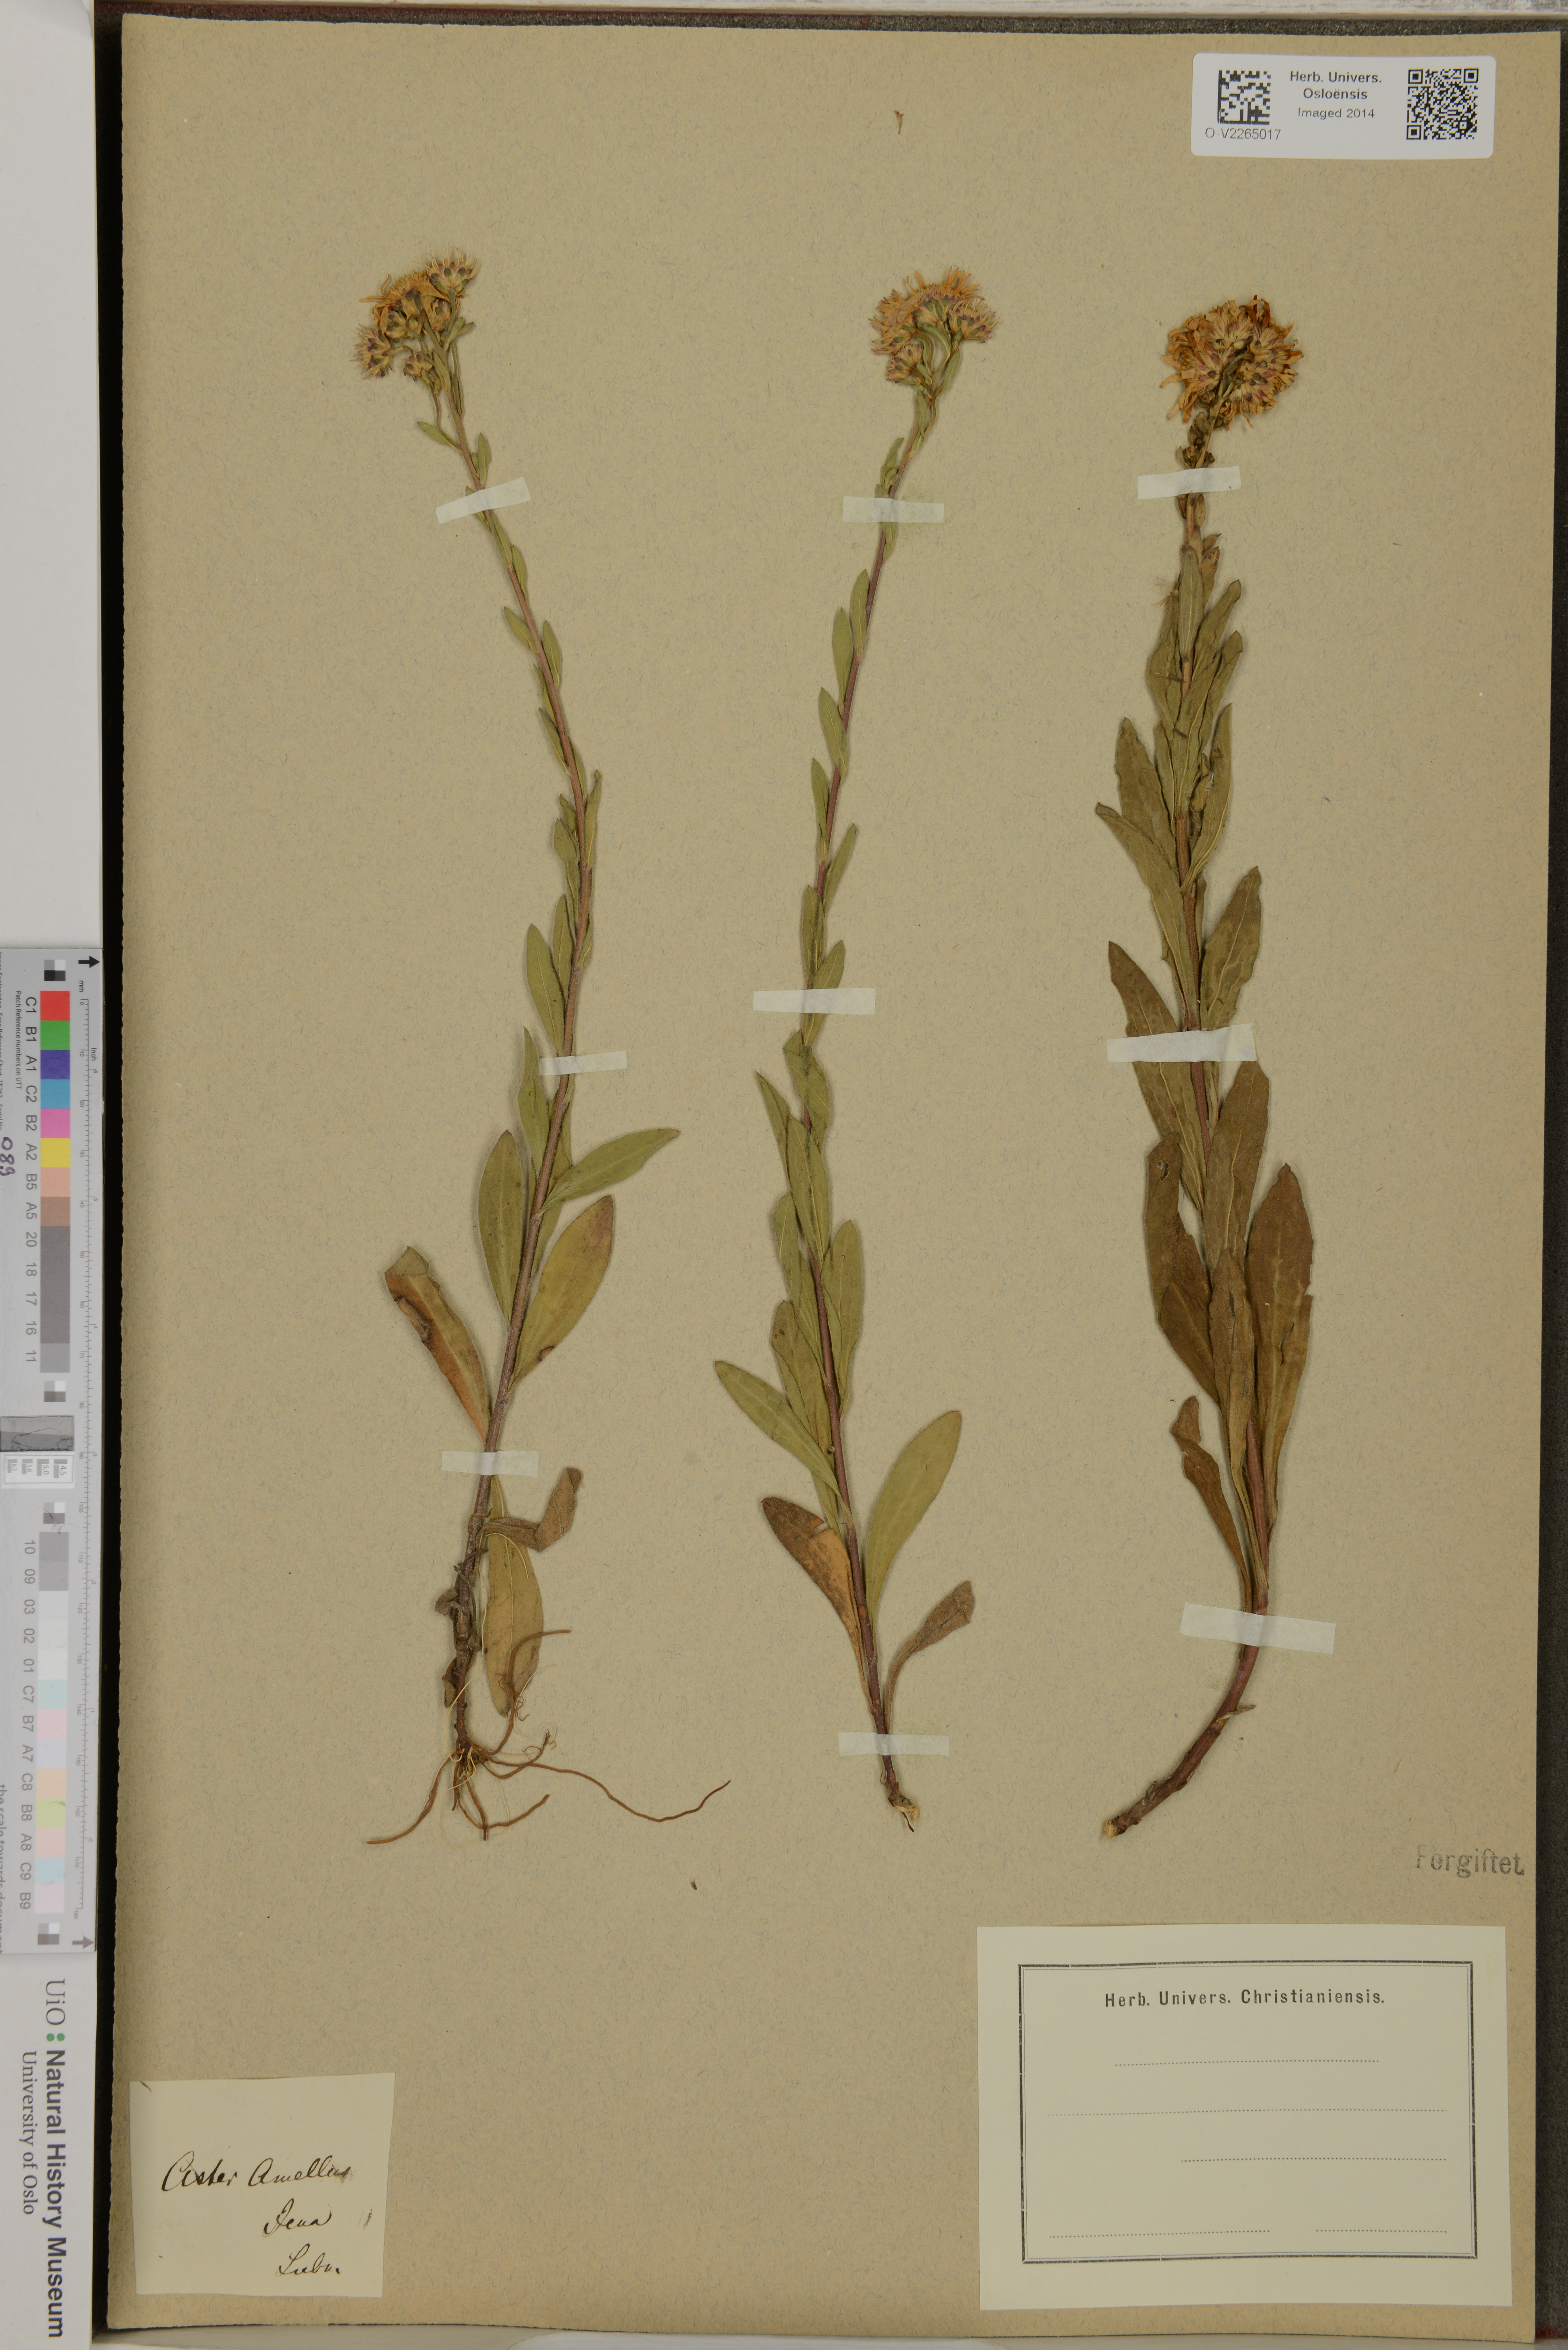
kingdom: Plantae
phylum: Tracheophyta
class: Magnoliopsida
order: Asterales
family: Asteraceae
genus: Aster
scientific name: Aster amellus
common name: European michaelmas daisy
